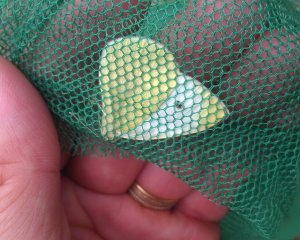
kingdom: Animalia
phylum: Arthropoda
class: Insecta
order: Lepidoptera
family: Pieridae
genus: Pieris
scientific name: Pieris rapae
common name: Cabbage White
